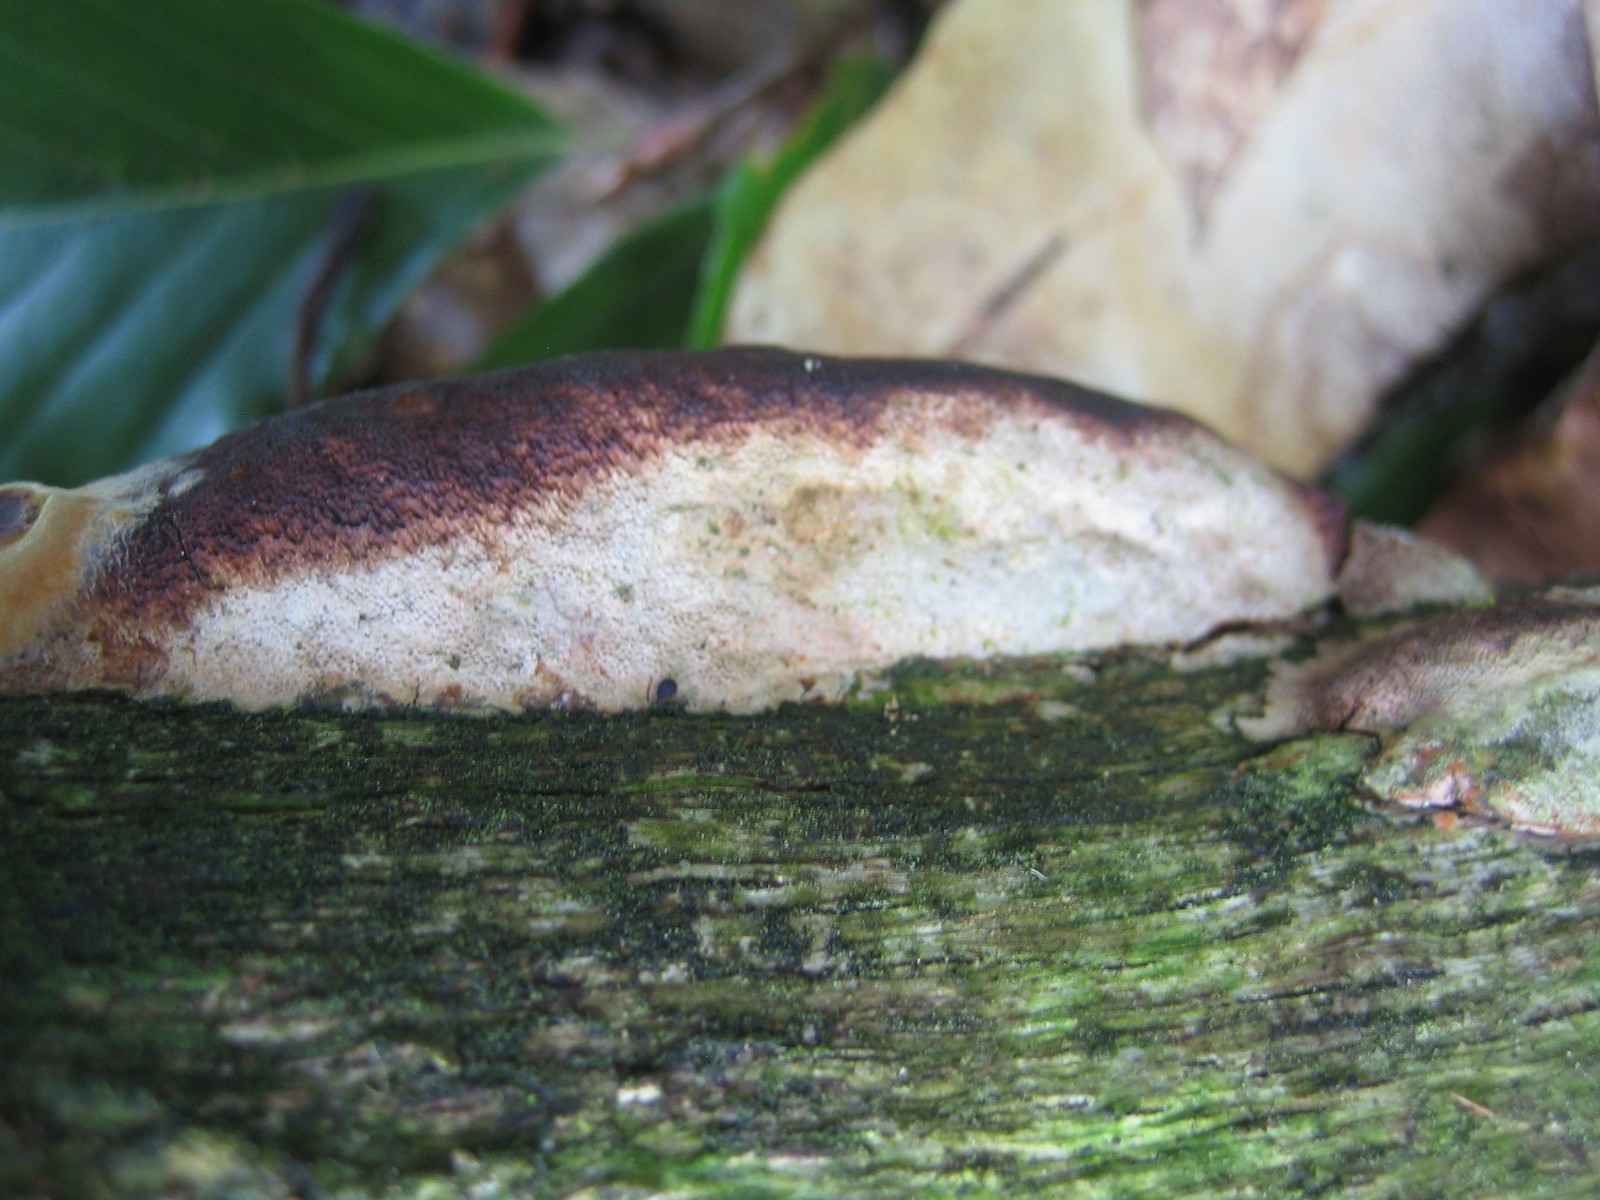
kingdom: Fungi
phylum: Basidiomycota
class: Agaricomycetes
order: Polyporales
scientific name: Polyporales
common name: poresvampordenen
